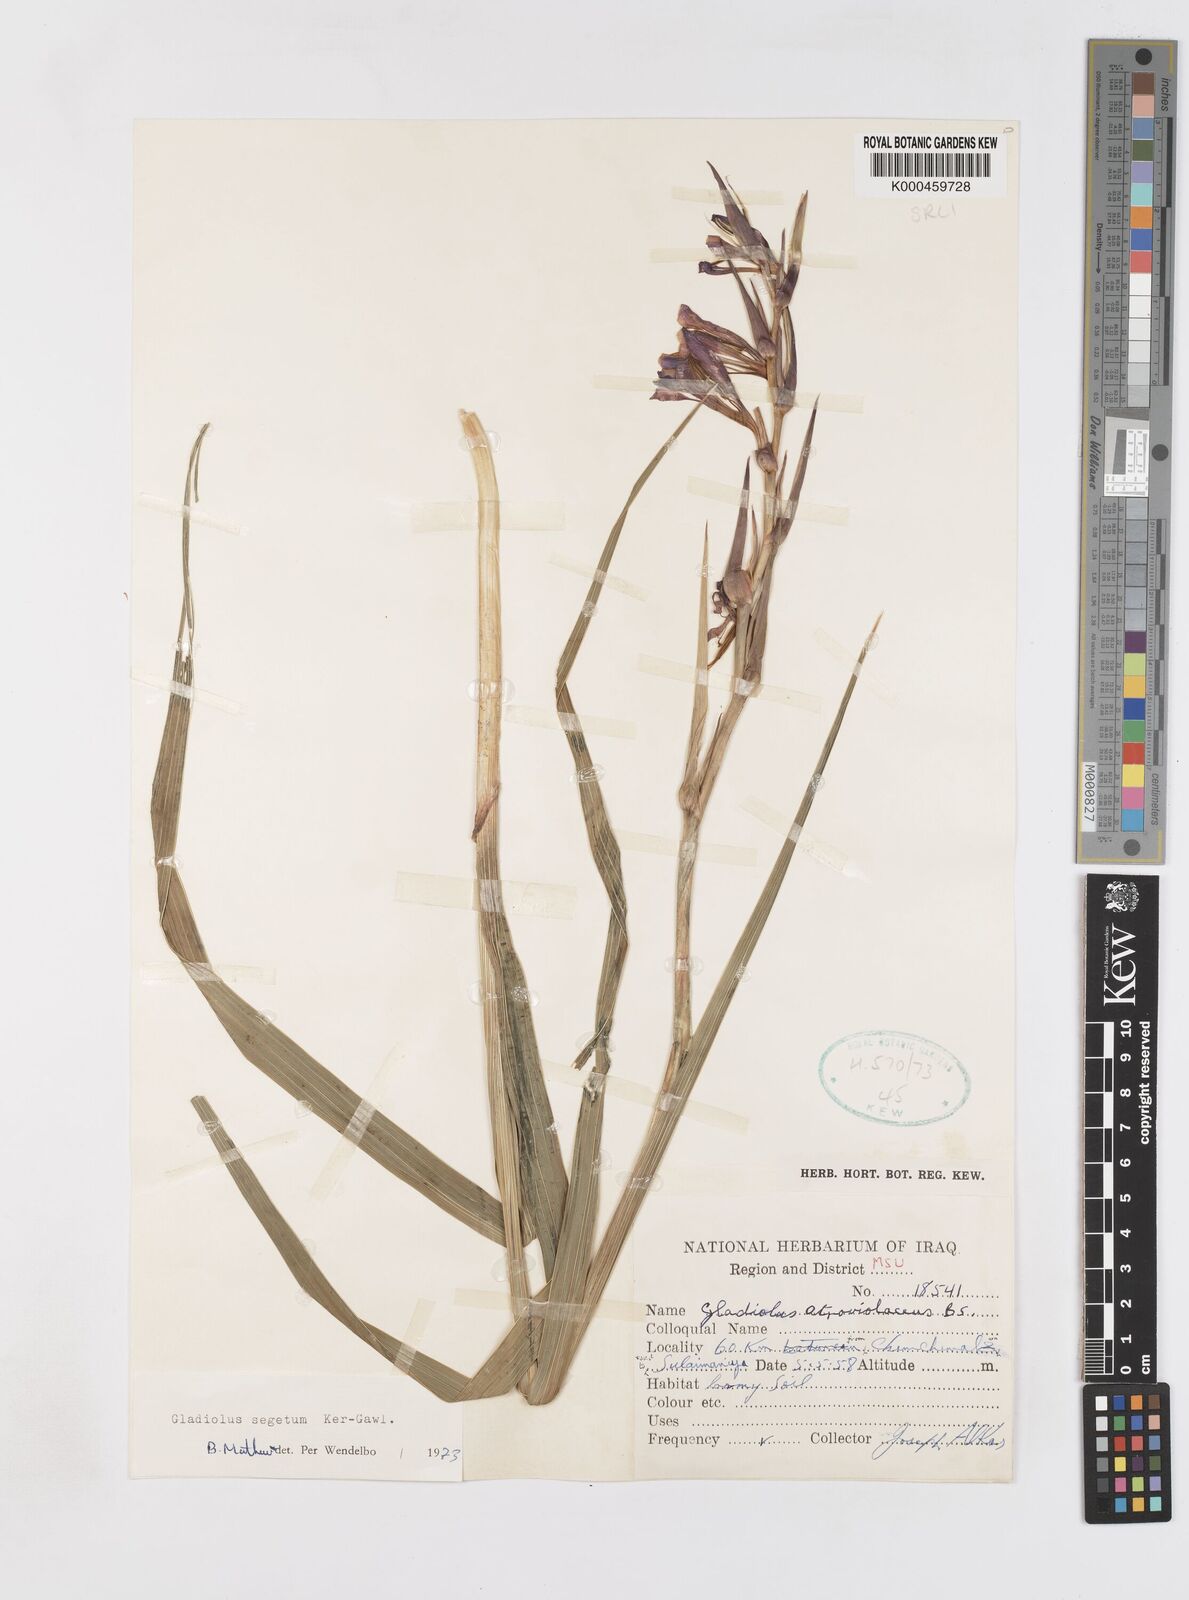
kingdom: Plantae
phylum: Tracheophyta
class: Liliopsida
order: Asparagales
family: Iridaceae
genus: Gladiolus
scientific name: Gladiolus italicus
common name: Field gladiolus
